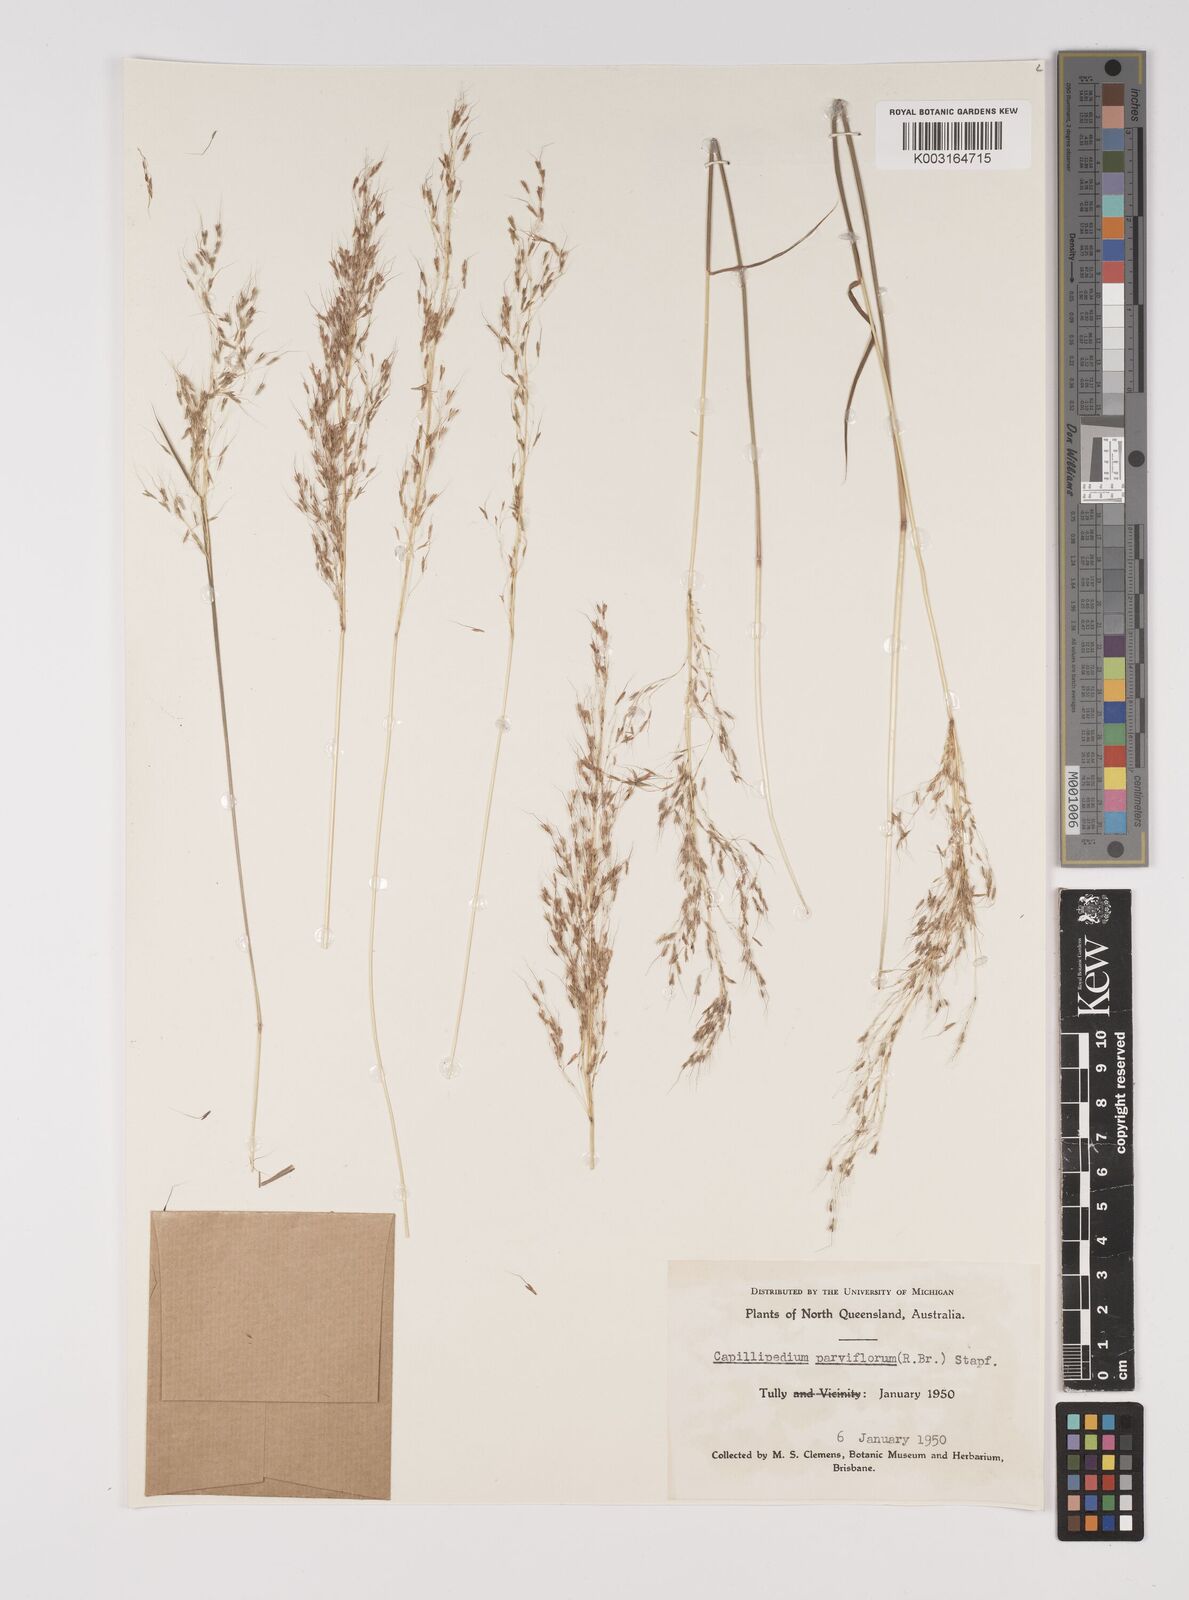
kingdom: Plantae
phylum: Tracheophyta
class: Liliopsida
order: Poales
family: Poaceae
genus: Capillipedium
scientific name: Capillipedium parviflorum
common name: Golden-beard
